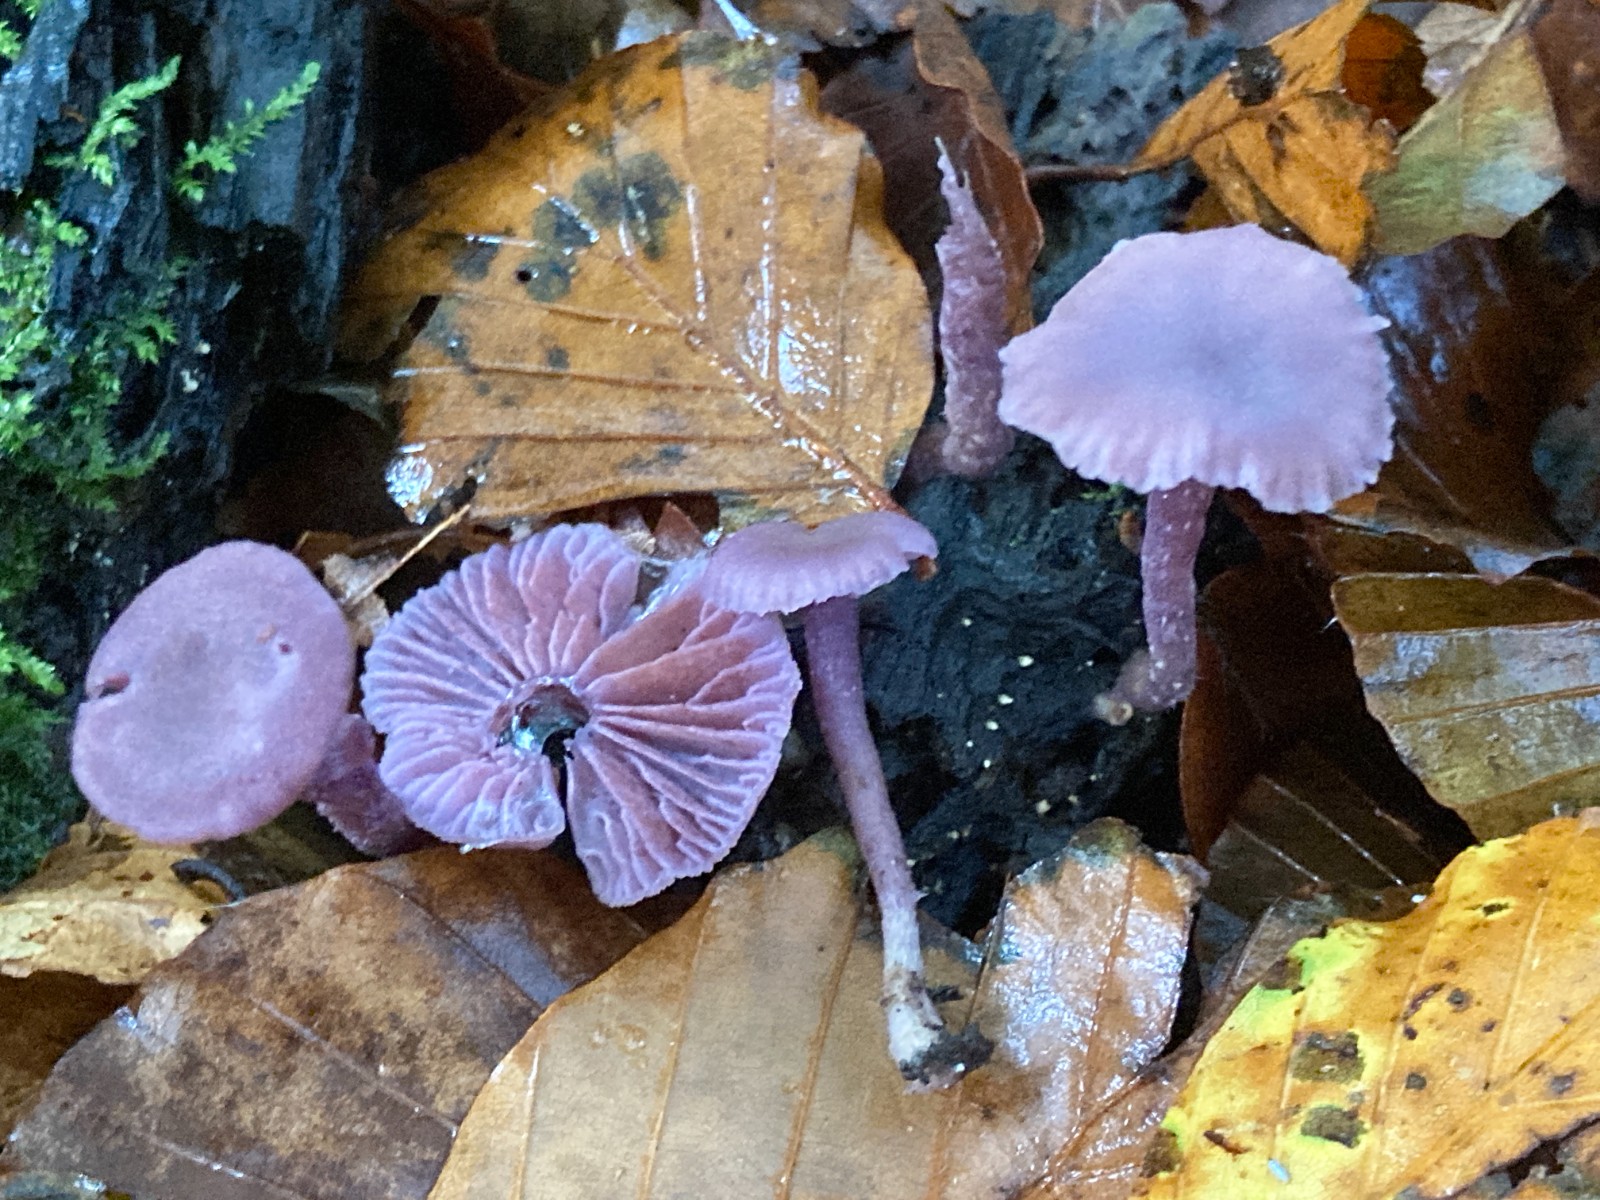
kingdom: Fungi
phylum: Basidiomycota
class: Agaricomycetes
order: Agaricales
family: Hydnangiaceae
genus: Laccaria
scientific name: Laccaria amethystina
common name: violet ametysthat
